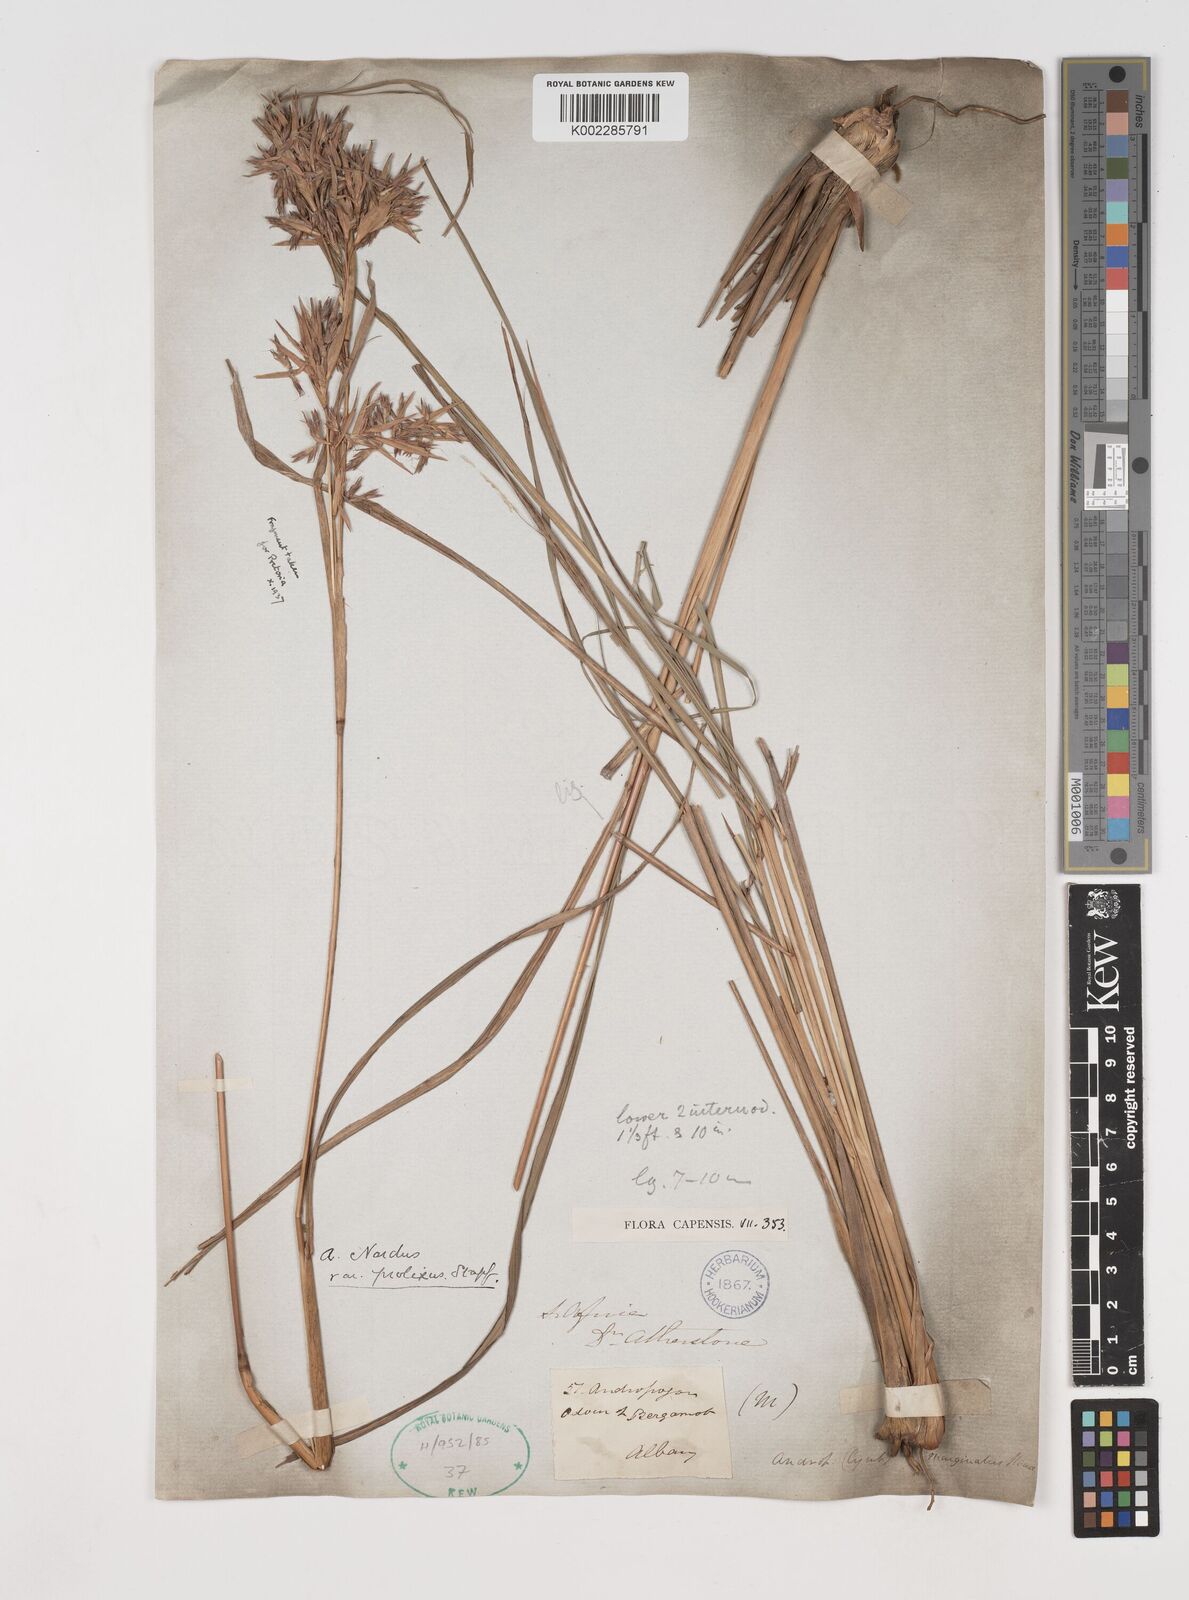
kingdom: Plantae
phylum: Tracheophyta
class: Liliopsida
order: Poales
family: Poaceae
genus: Cymbopogon
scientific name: Cymbopogon nardus
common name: Giant turpentine grass
